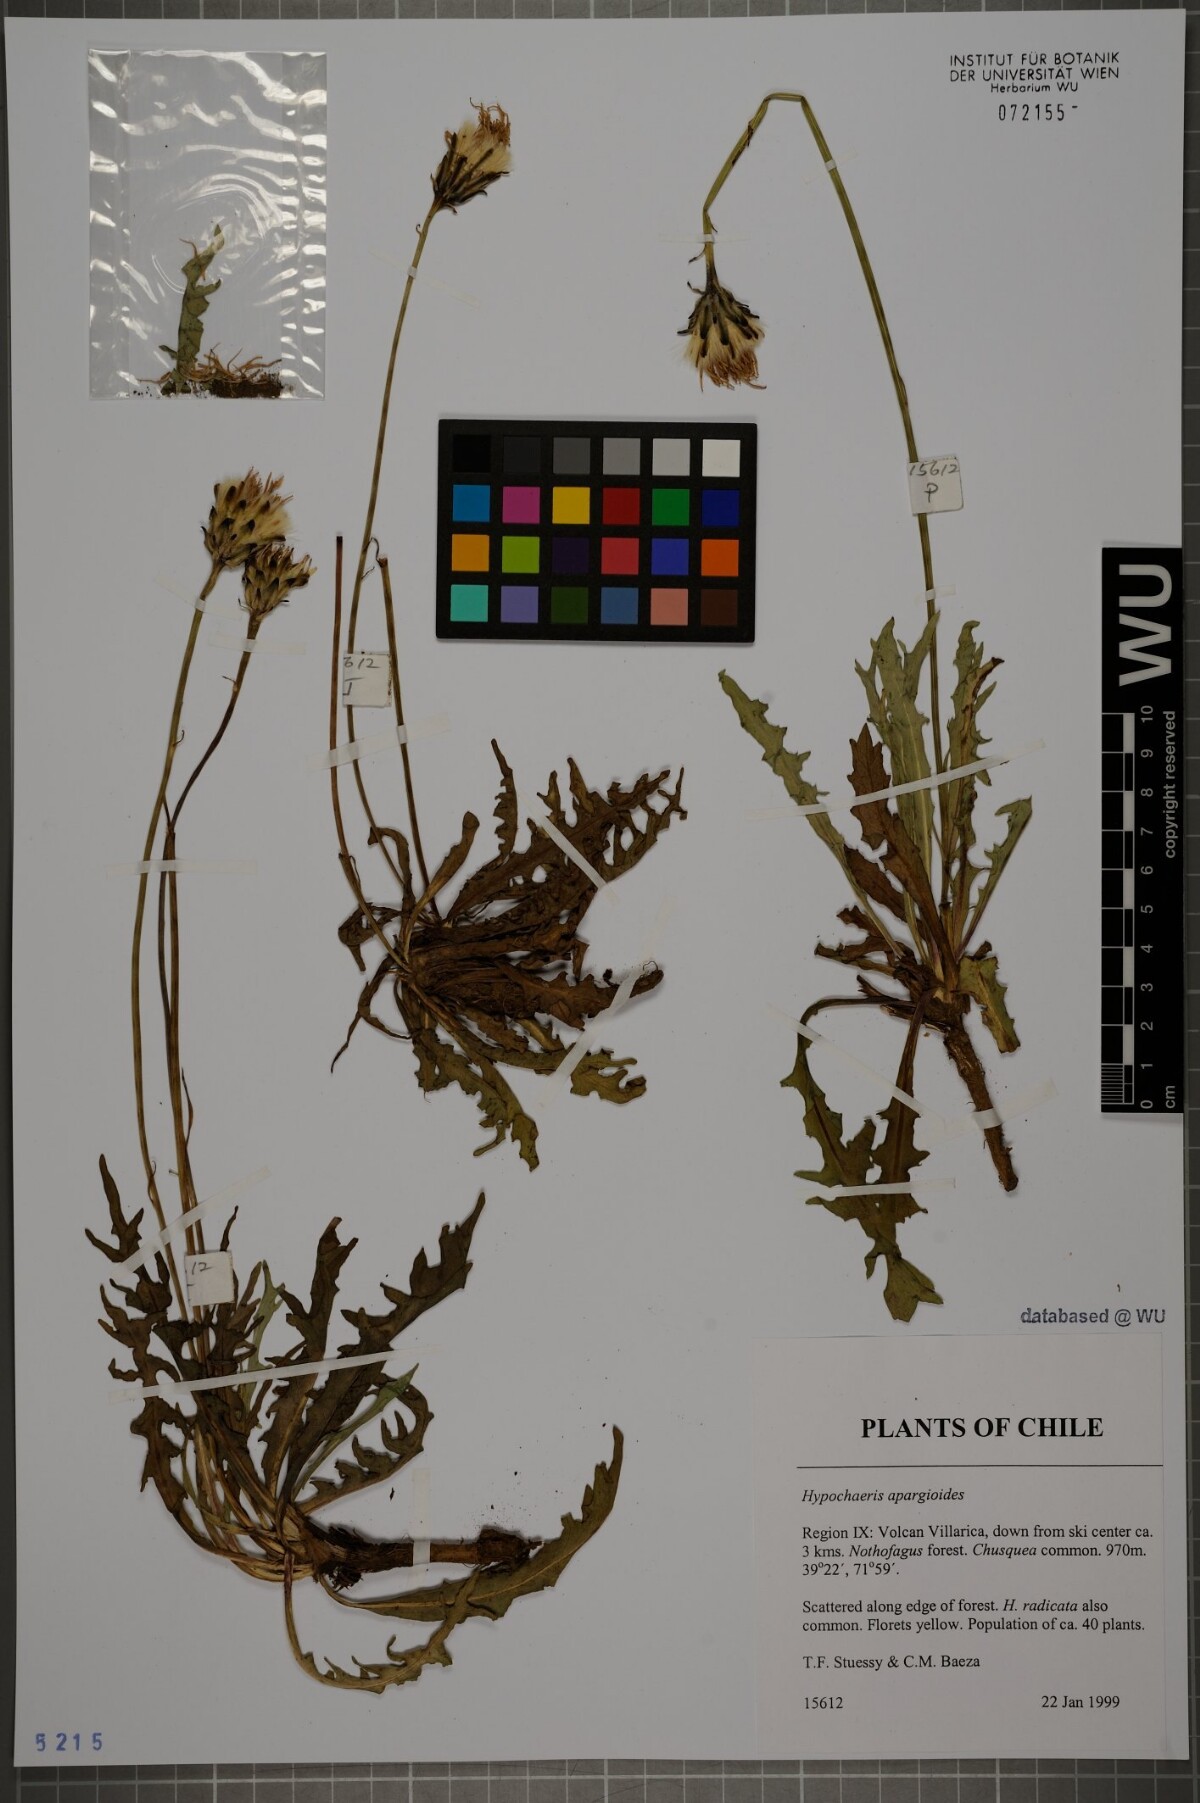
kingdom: Plantae
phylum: Tracheophyta
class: Magnoliopsida
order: Asterales
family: Asteraceae
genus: Hypochaeris
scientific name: Hypochaeris apargioides
